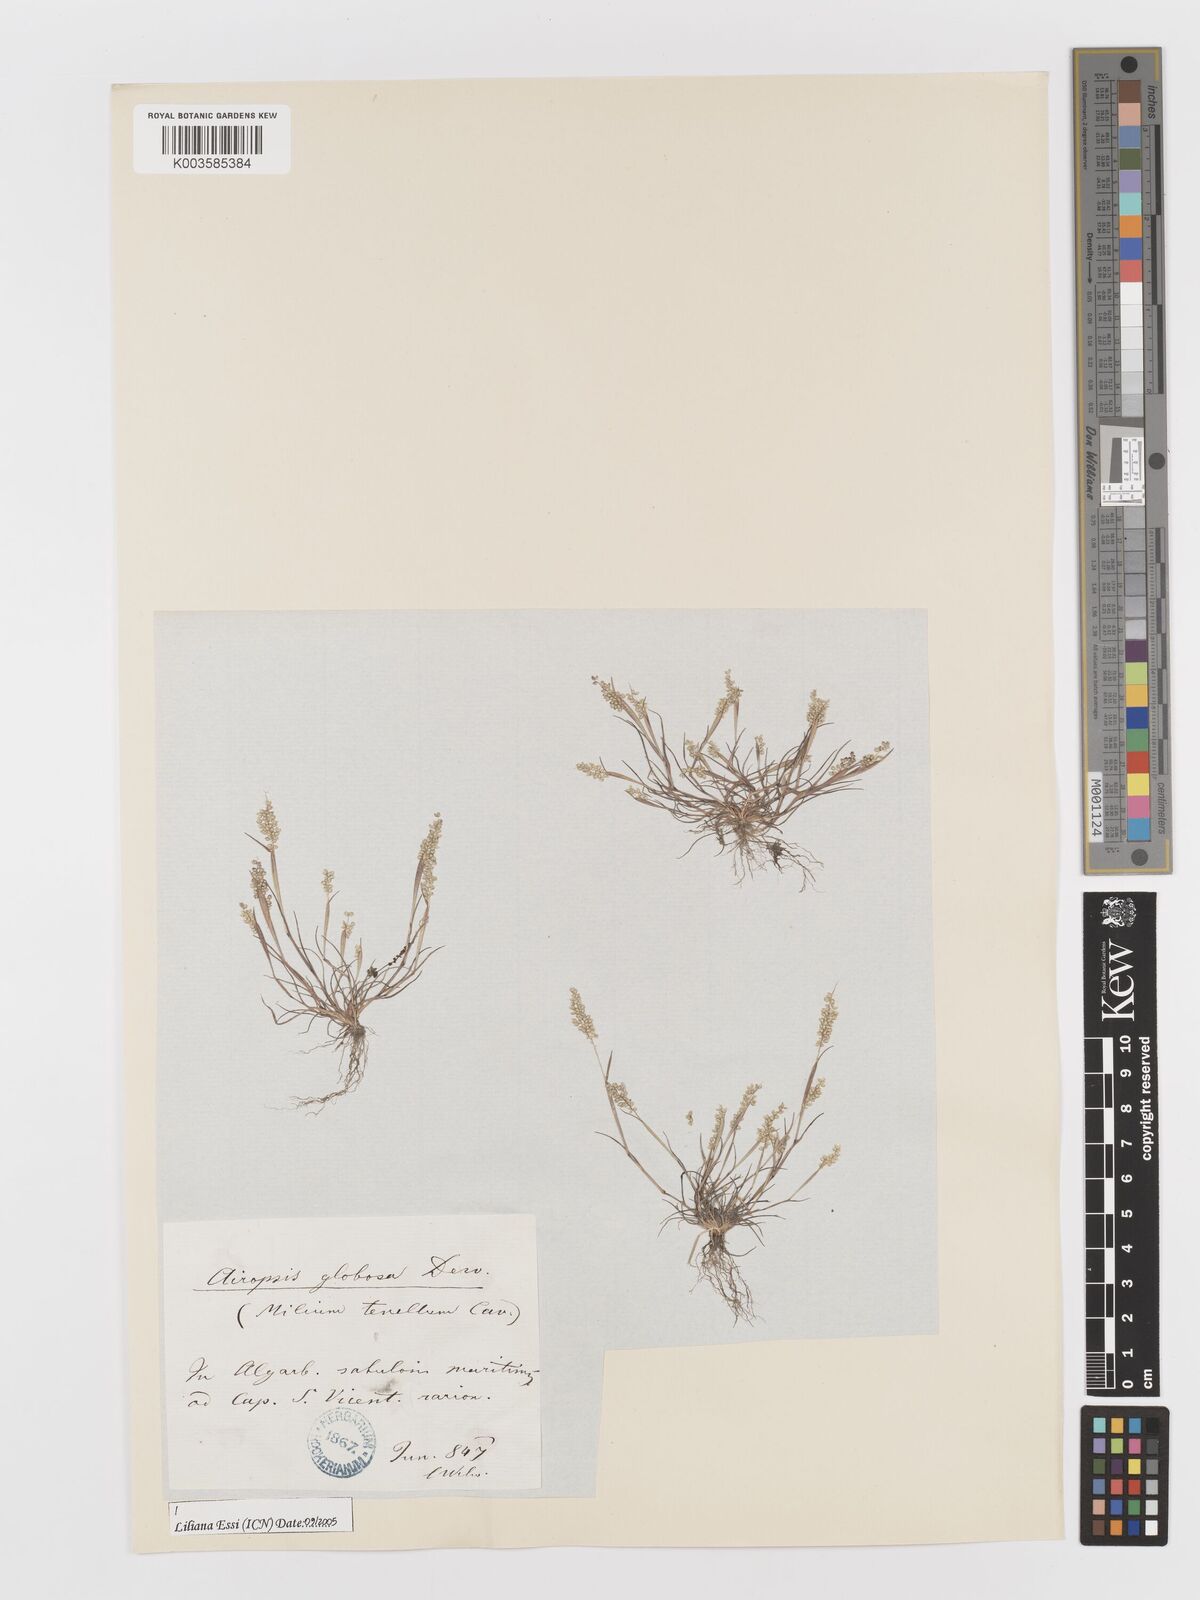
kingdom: Plantae
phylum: Tracheophyta
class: Liliopsida
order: Poales
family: Poaceae
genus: Airopsis
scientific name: Airopsis tenella
